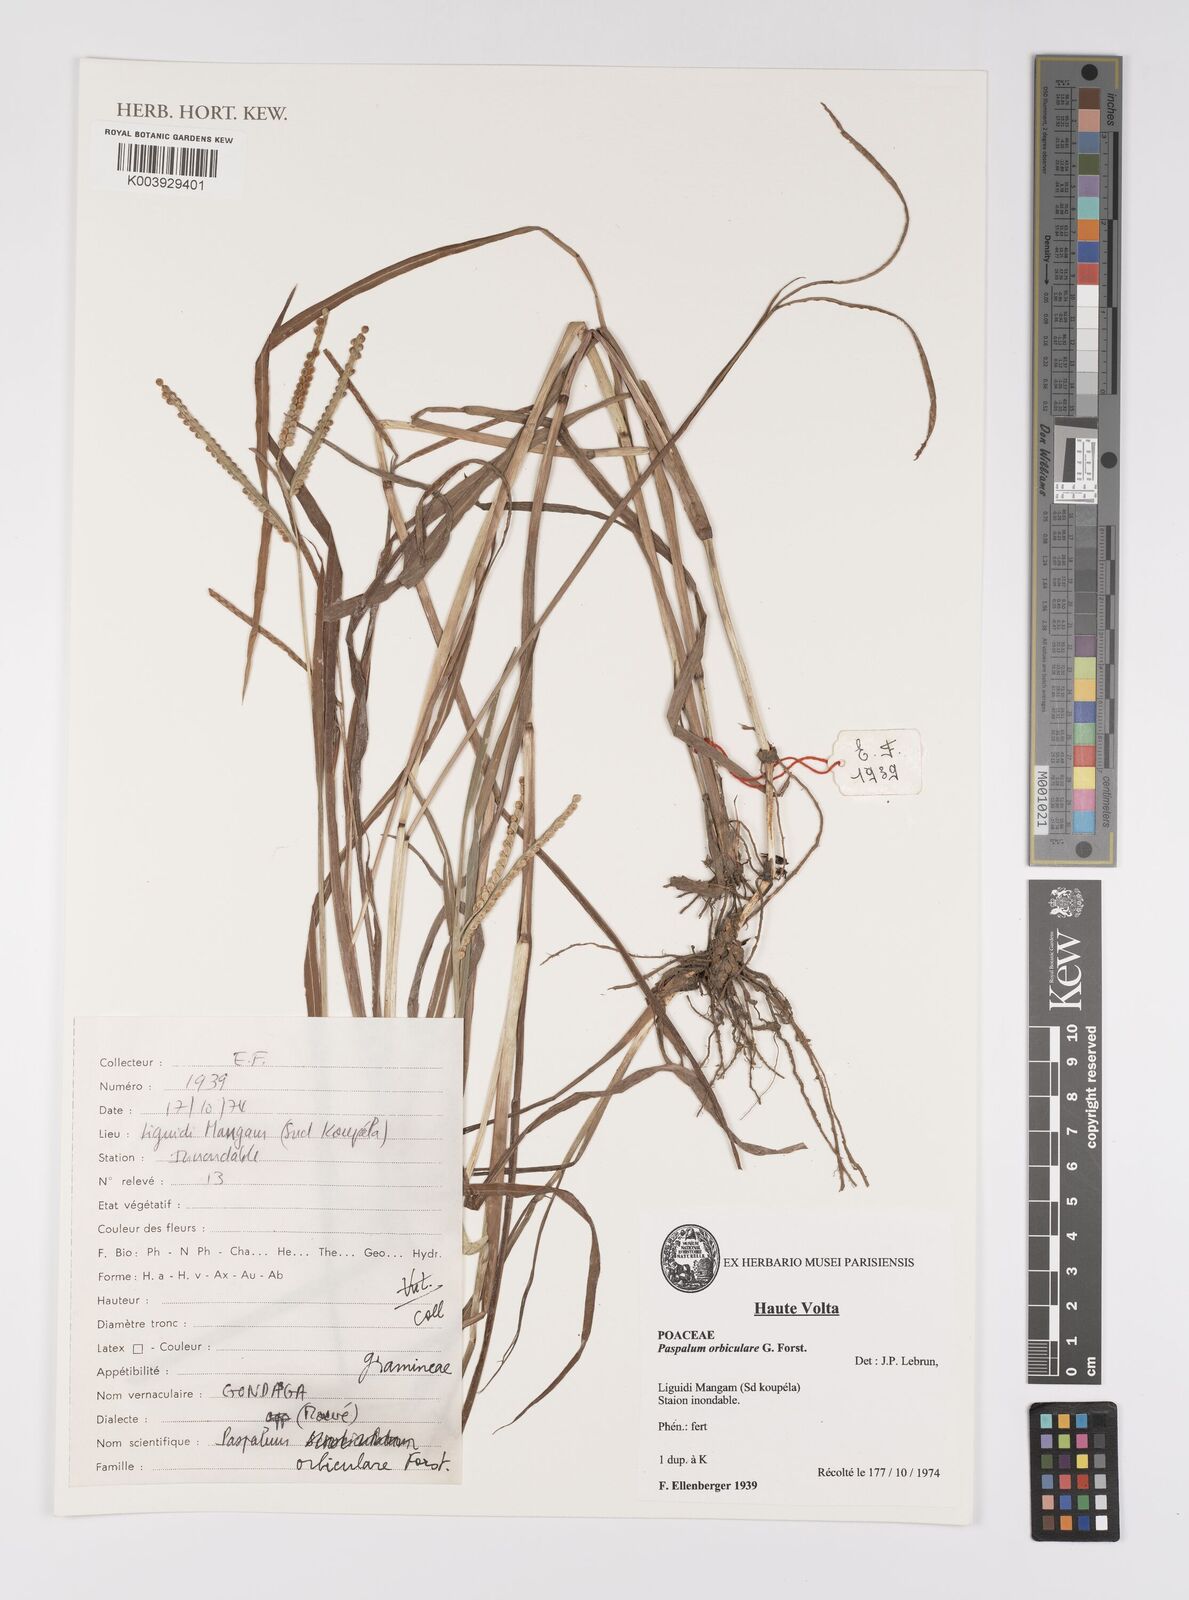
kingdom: Plantae
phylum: Tracheophyta
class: Liliopsida
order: Poales
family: Poaceae
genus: Paspalum
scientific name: Paspalum scrobiculatum
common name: Kodo millet
